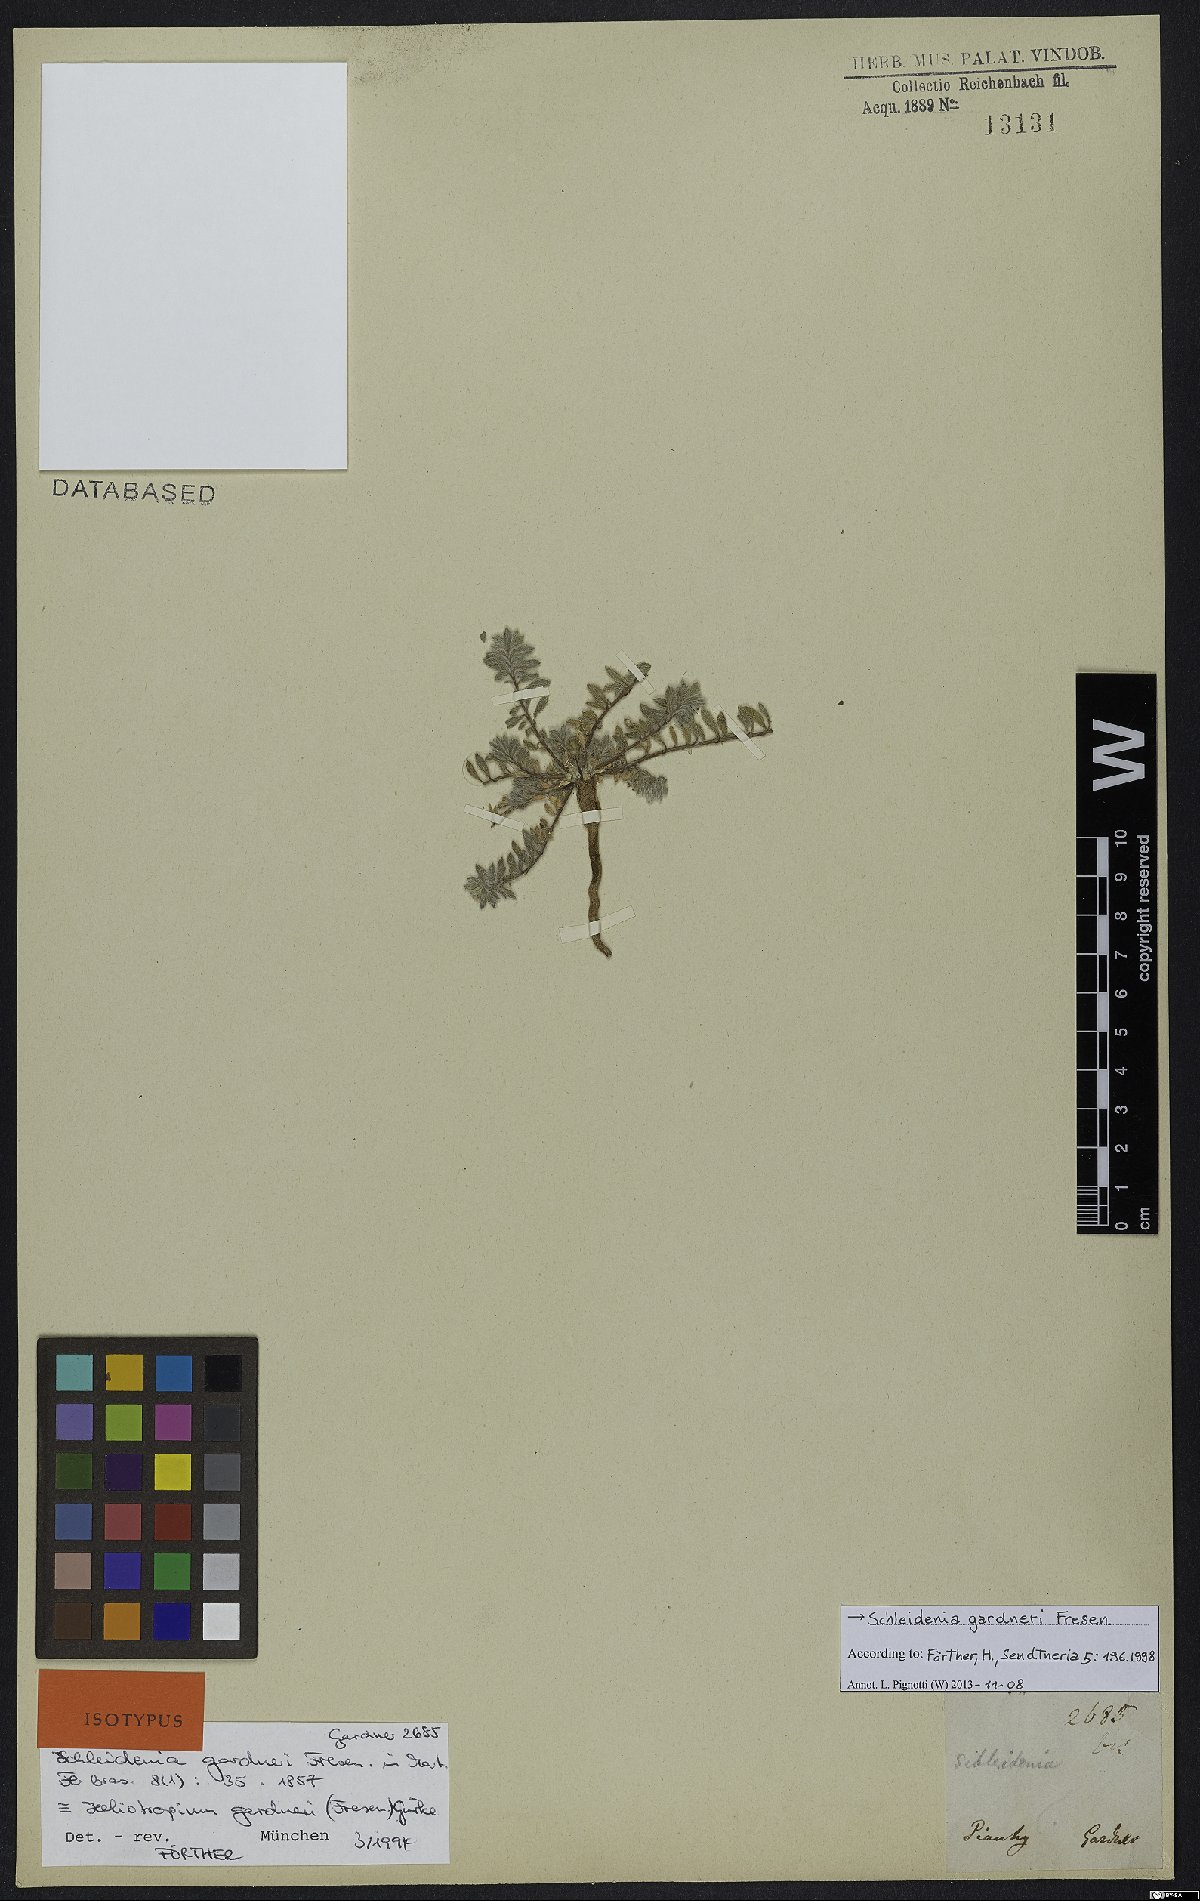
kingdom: Plantae
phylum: Tracheophyta
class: Magnoliopsida
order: Boraginales
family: Heliotropiaceae
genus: Euploca
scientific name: Euploca paradoxa
